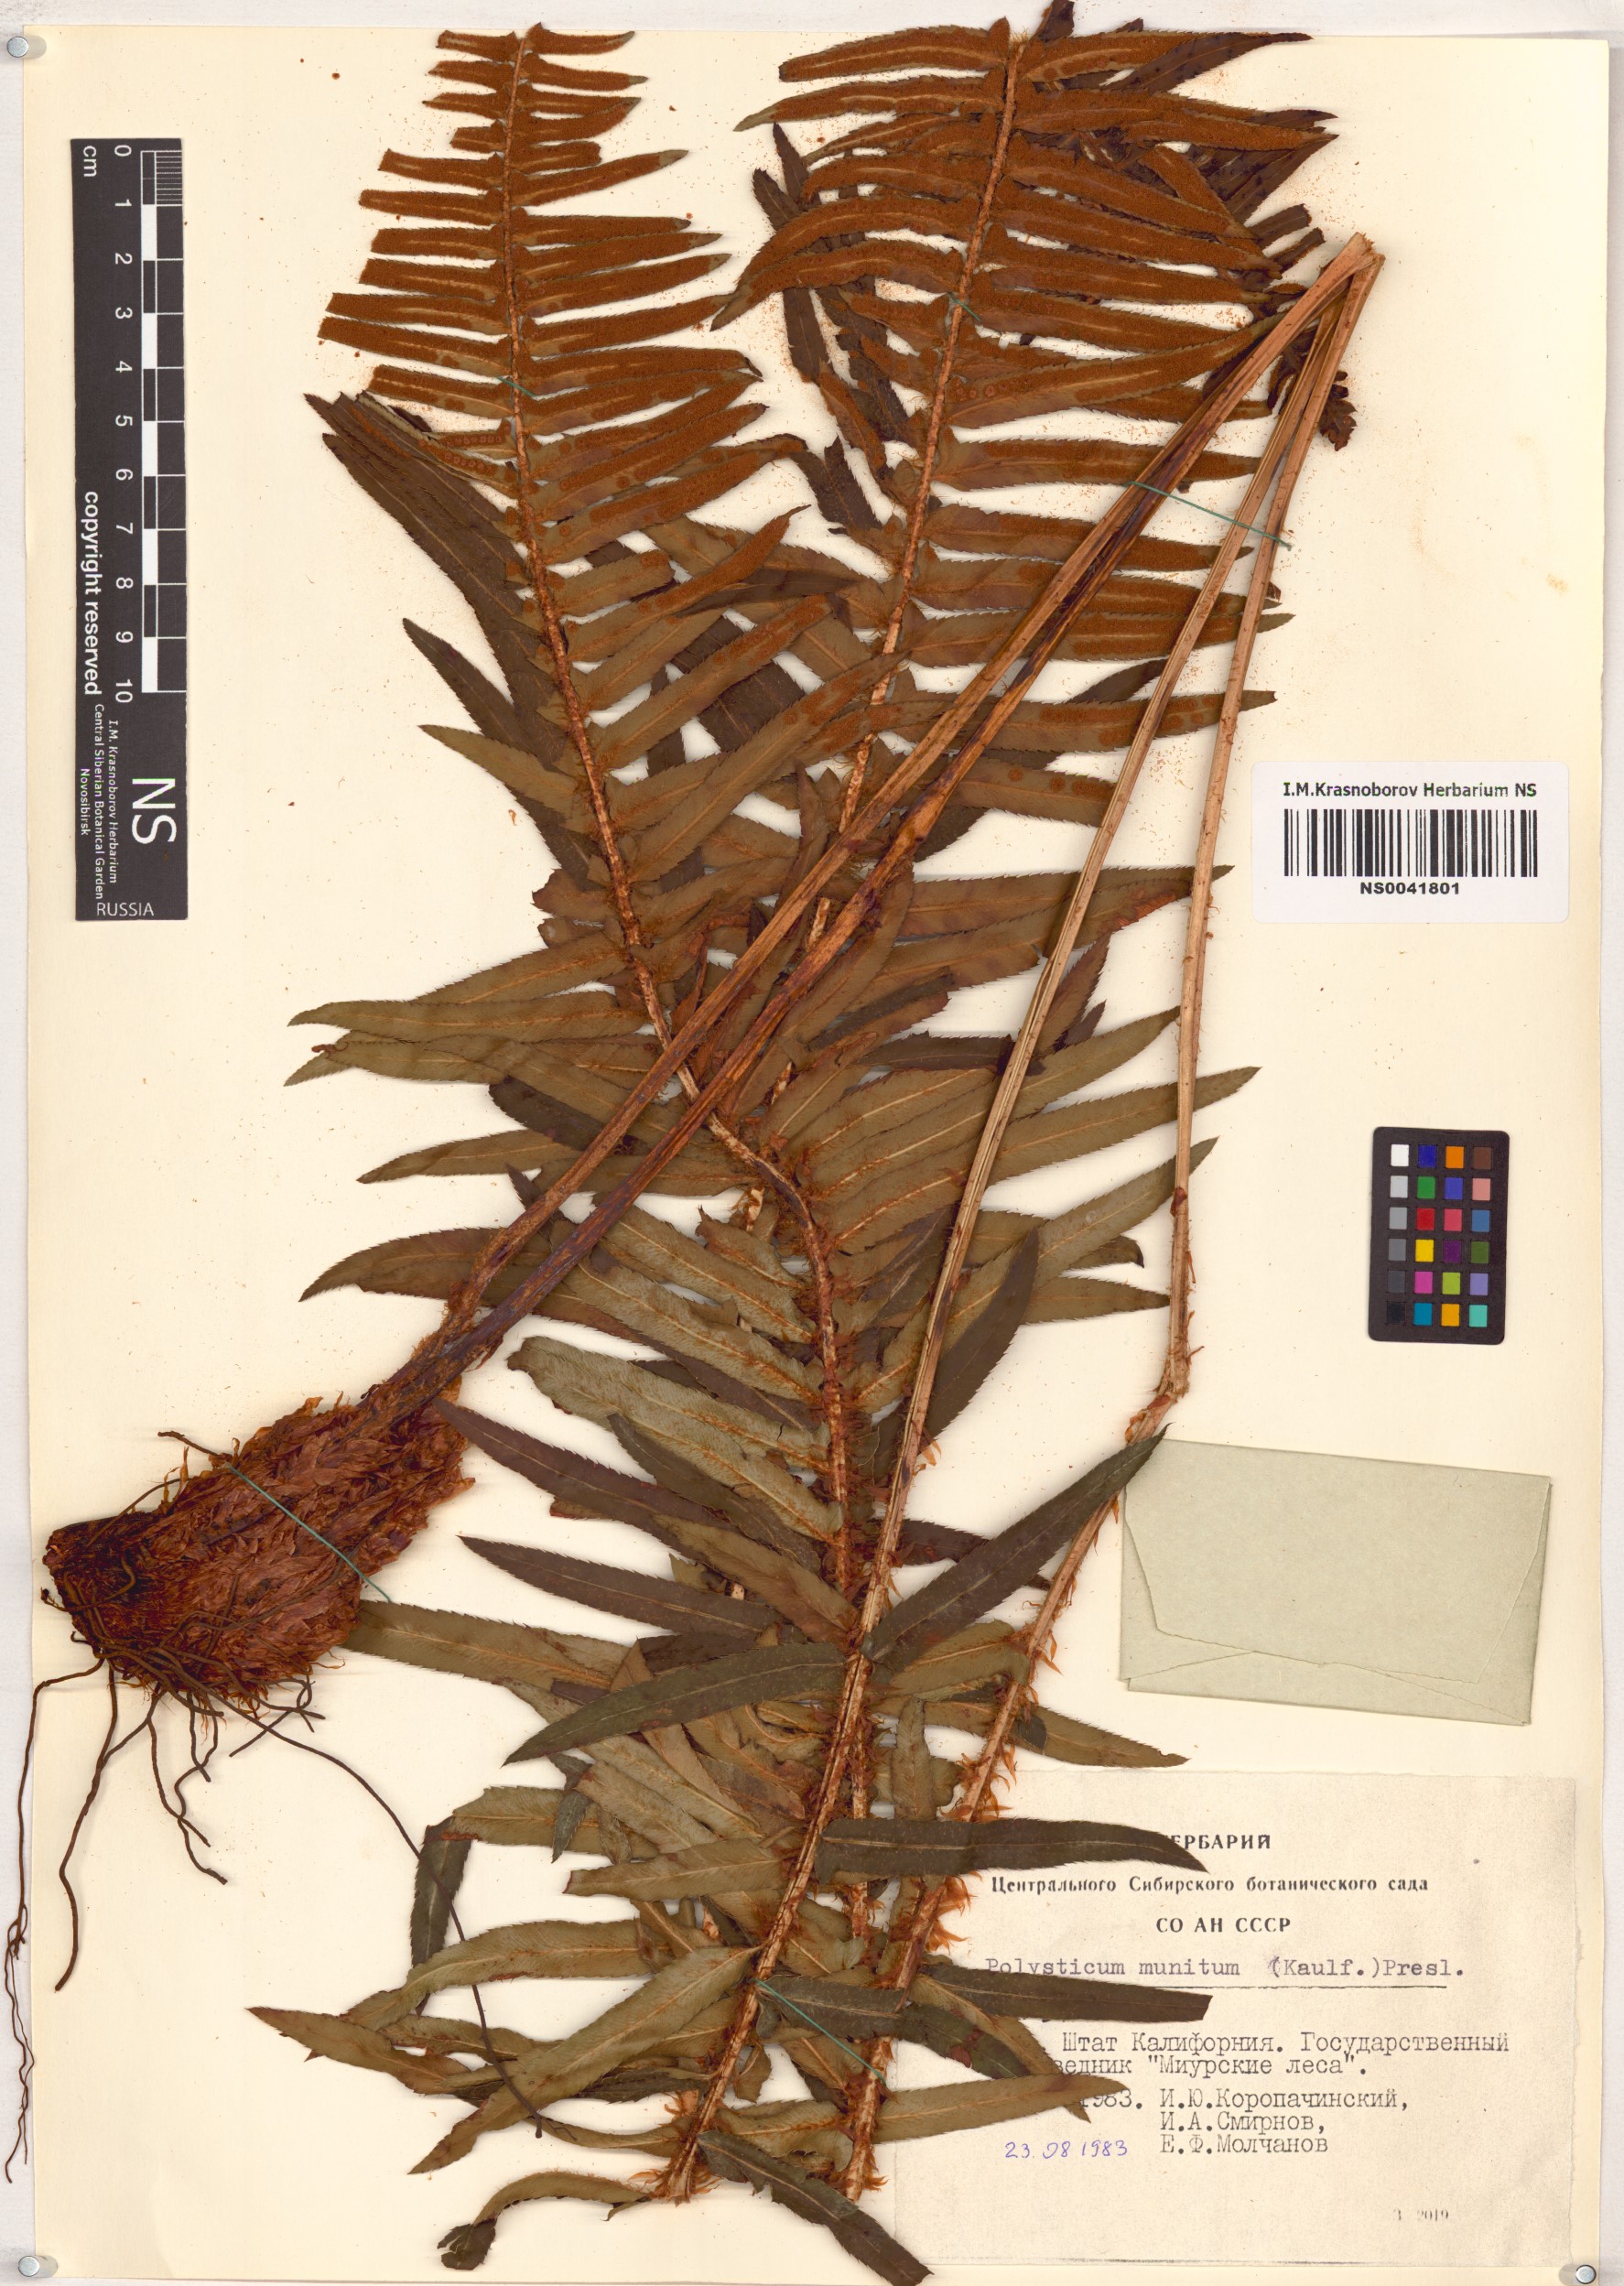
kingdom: Plantae
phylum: Tracheophyta
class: Polypodiopsida
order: Polypodiales
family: Dryopteridaceae
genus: Polystichum
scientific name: Polystichum munitum
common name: Western sword-fern
